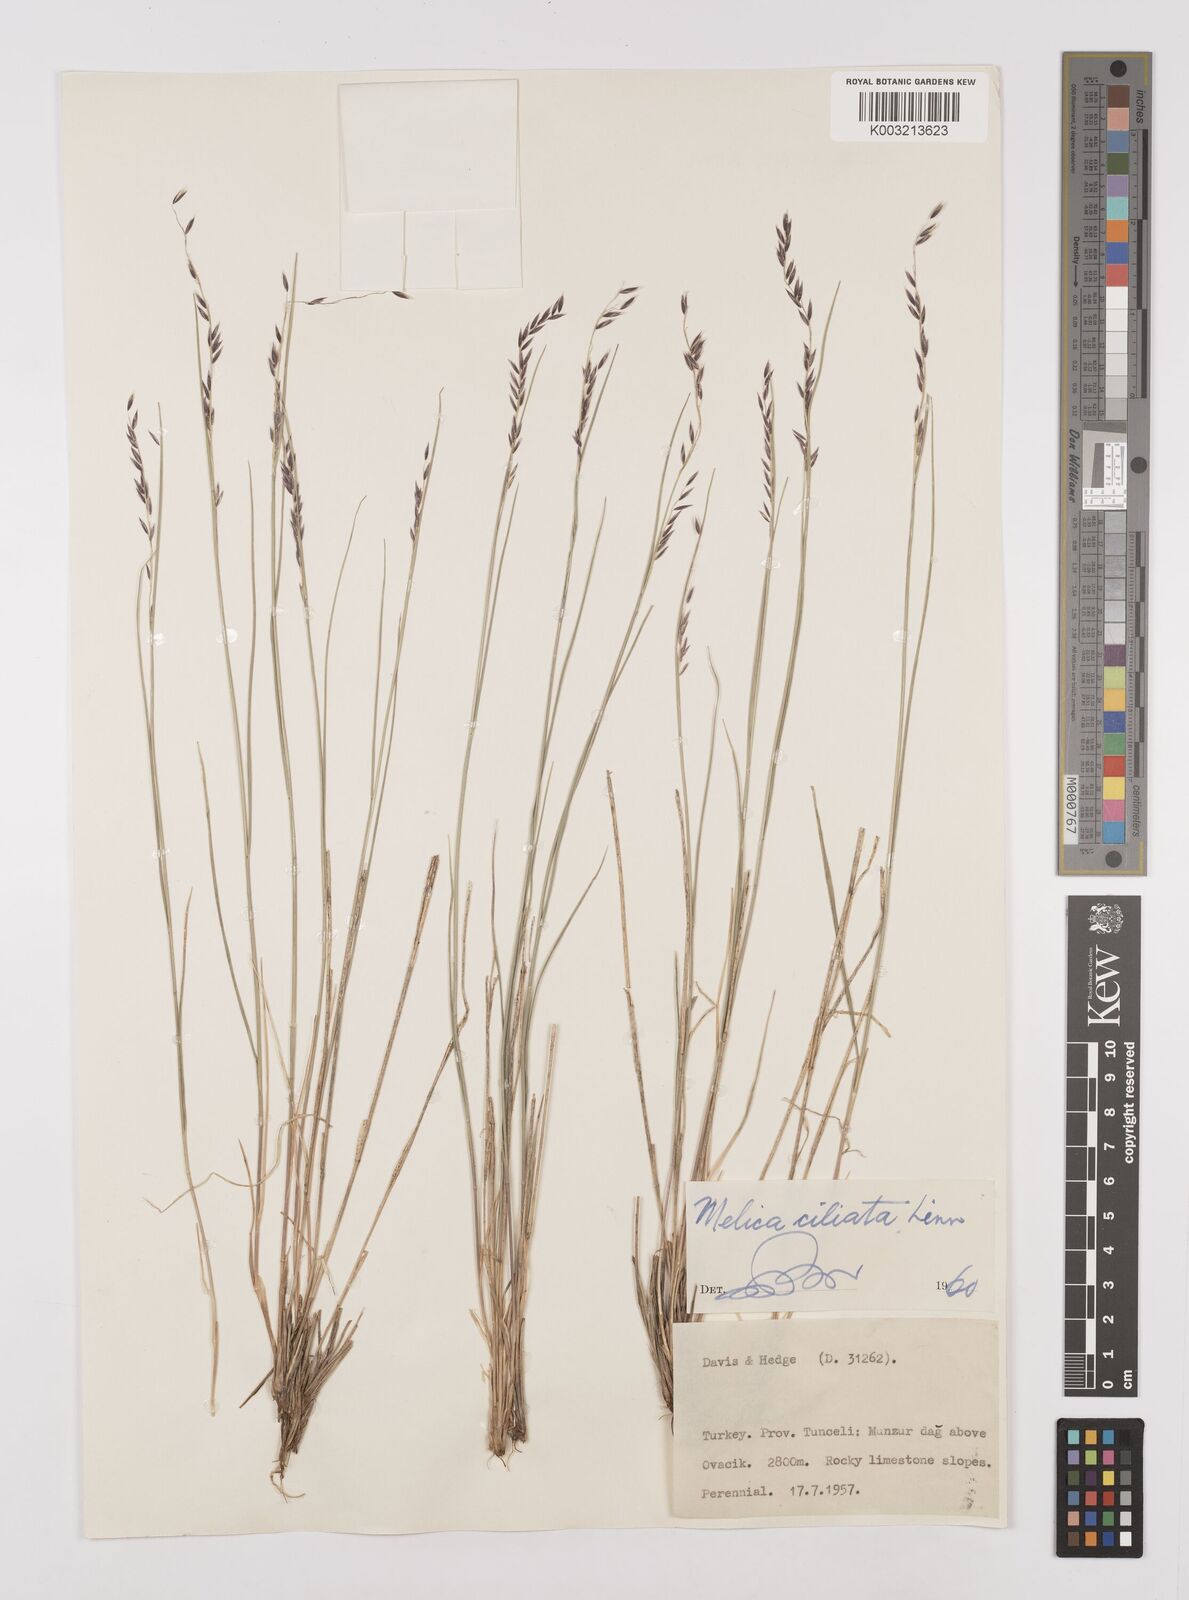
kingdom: Plantae
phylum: Tracheophyta
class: Liliopsida
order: Poales
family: Poaceae
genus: Melica
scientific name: Melica ciliata
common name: Hairy melicgrass
